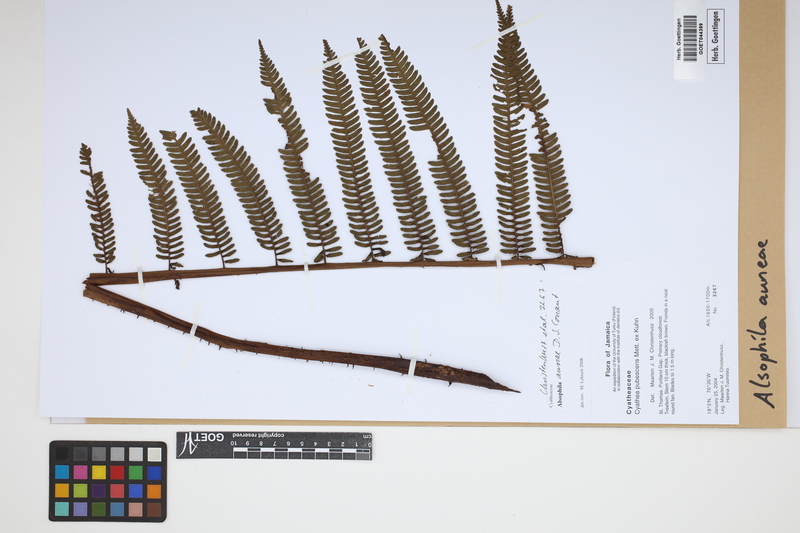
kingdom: Plantae
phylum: Tracheophyta
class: Polypodiopsida
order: Cyatheales
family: Cyatheaceae
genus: Alsophila
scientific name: Alsophila auneae
